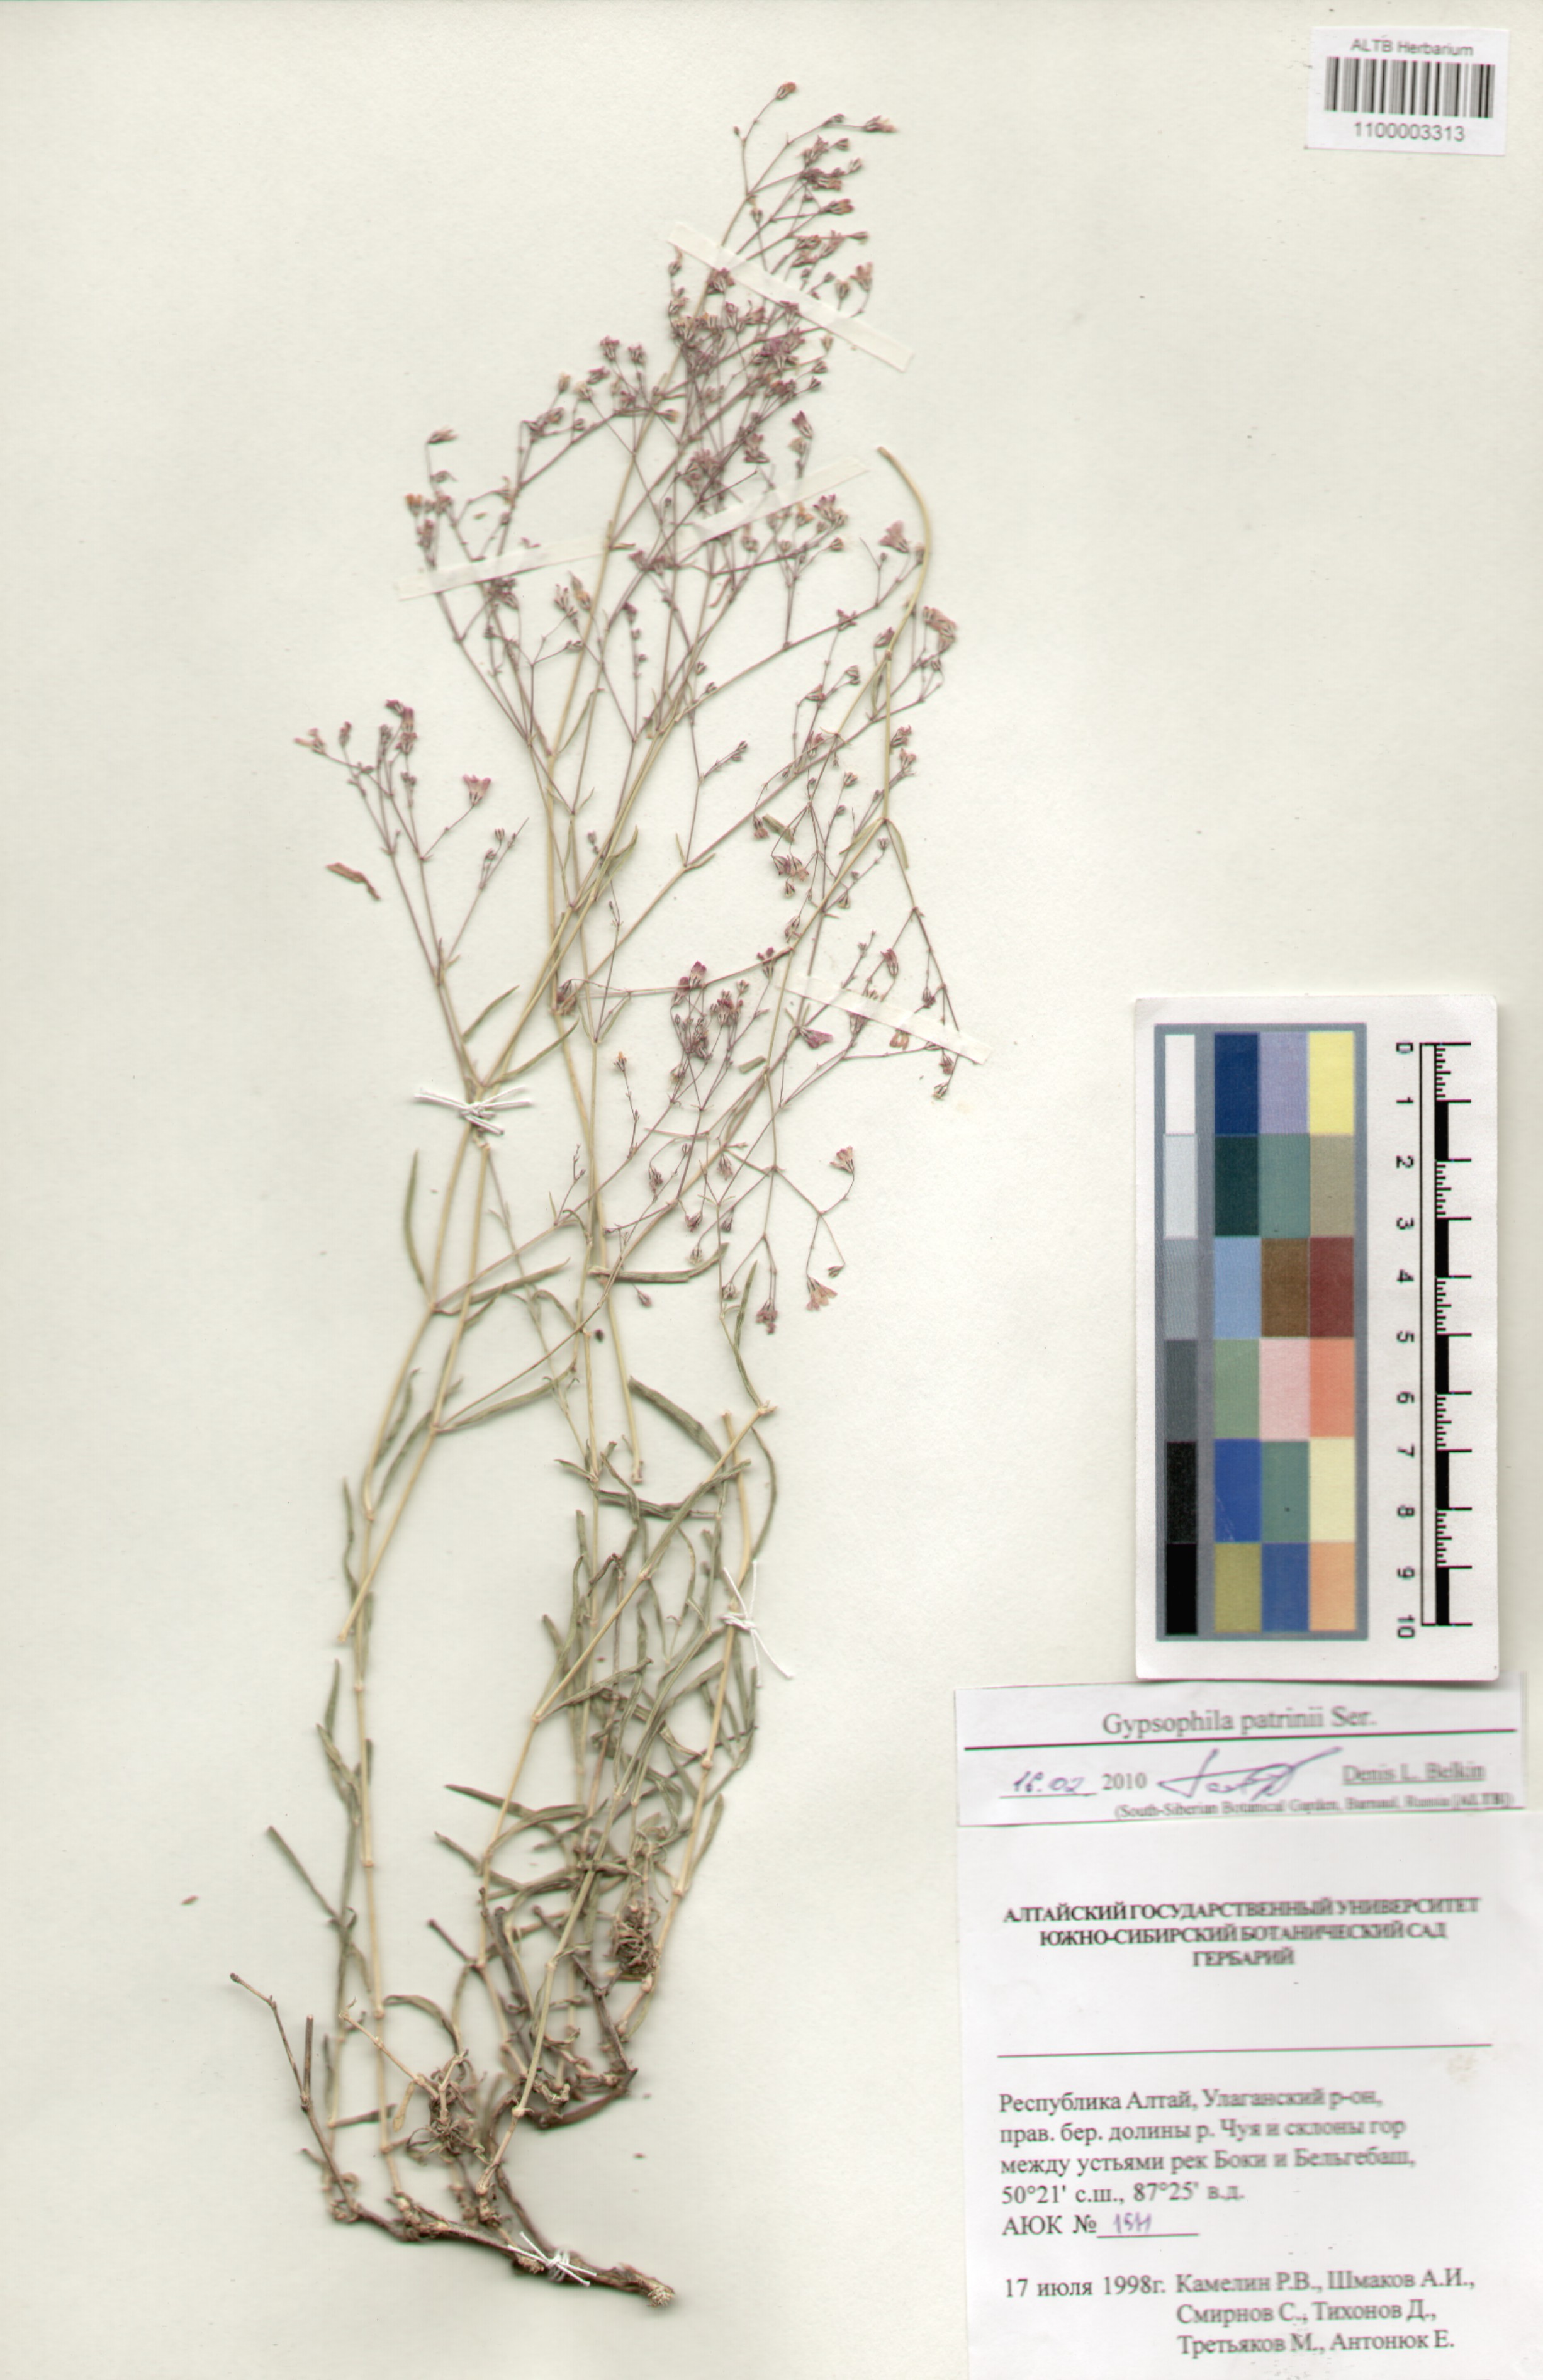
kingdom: Plantae
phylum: Tracheophyta
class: Magnoliopsida
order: Caryophyllales
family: Caryophyllaceae
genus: Gypsophila
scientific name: Gypsophila patrinii
